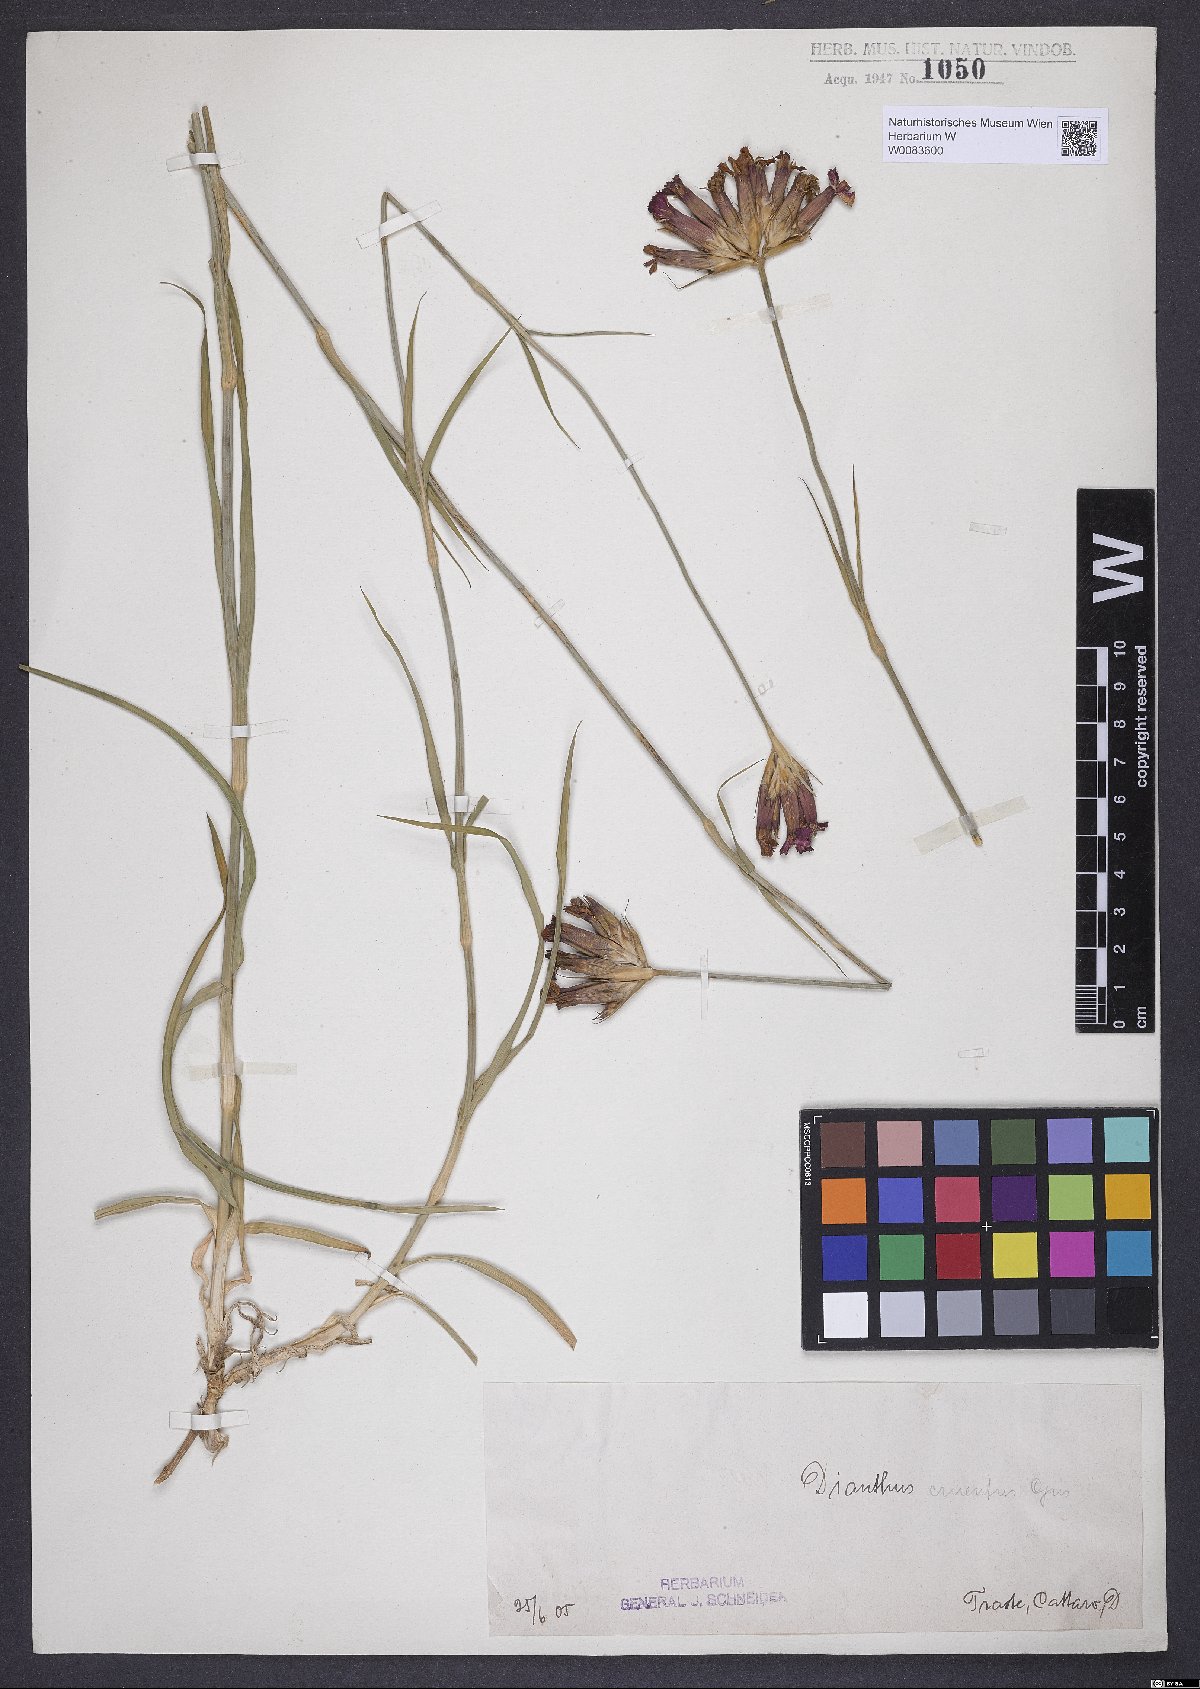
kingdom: Plantae
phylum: Tracheophyta
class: Magnoliopsida
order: Caryophyllales
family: Caryophyllaceae
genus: Dianthus
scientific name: Dianthus cruentus
